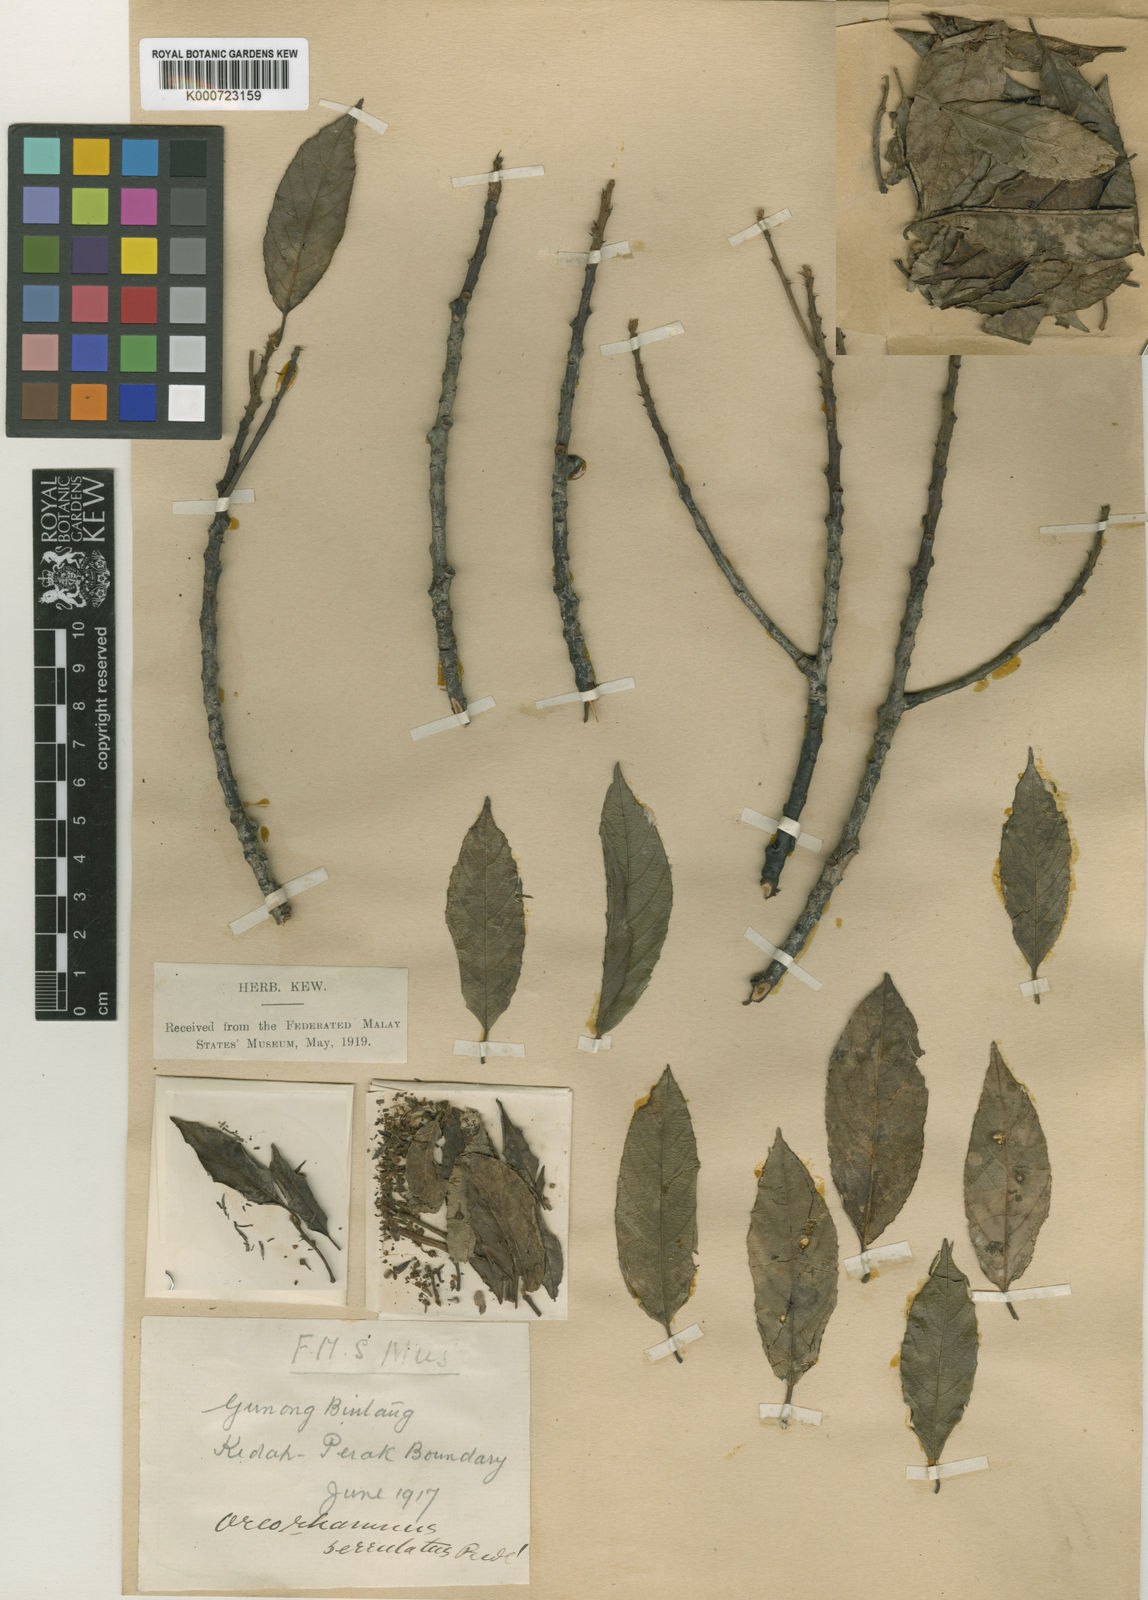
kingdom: Plantae
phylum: Tracheophyta
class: Magnoliopsida
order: Rosales
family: Rhamnaceae
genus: Frangula
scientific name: Frangula borneensis
